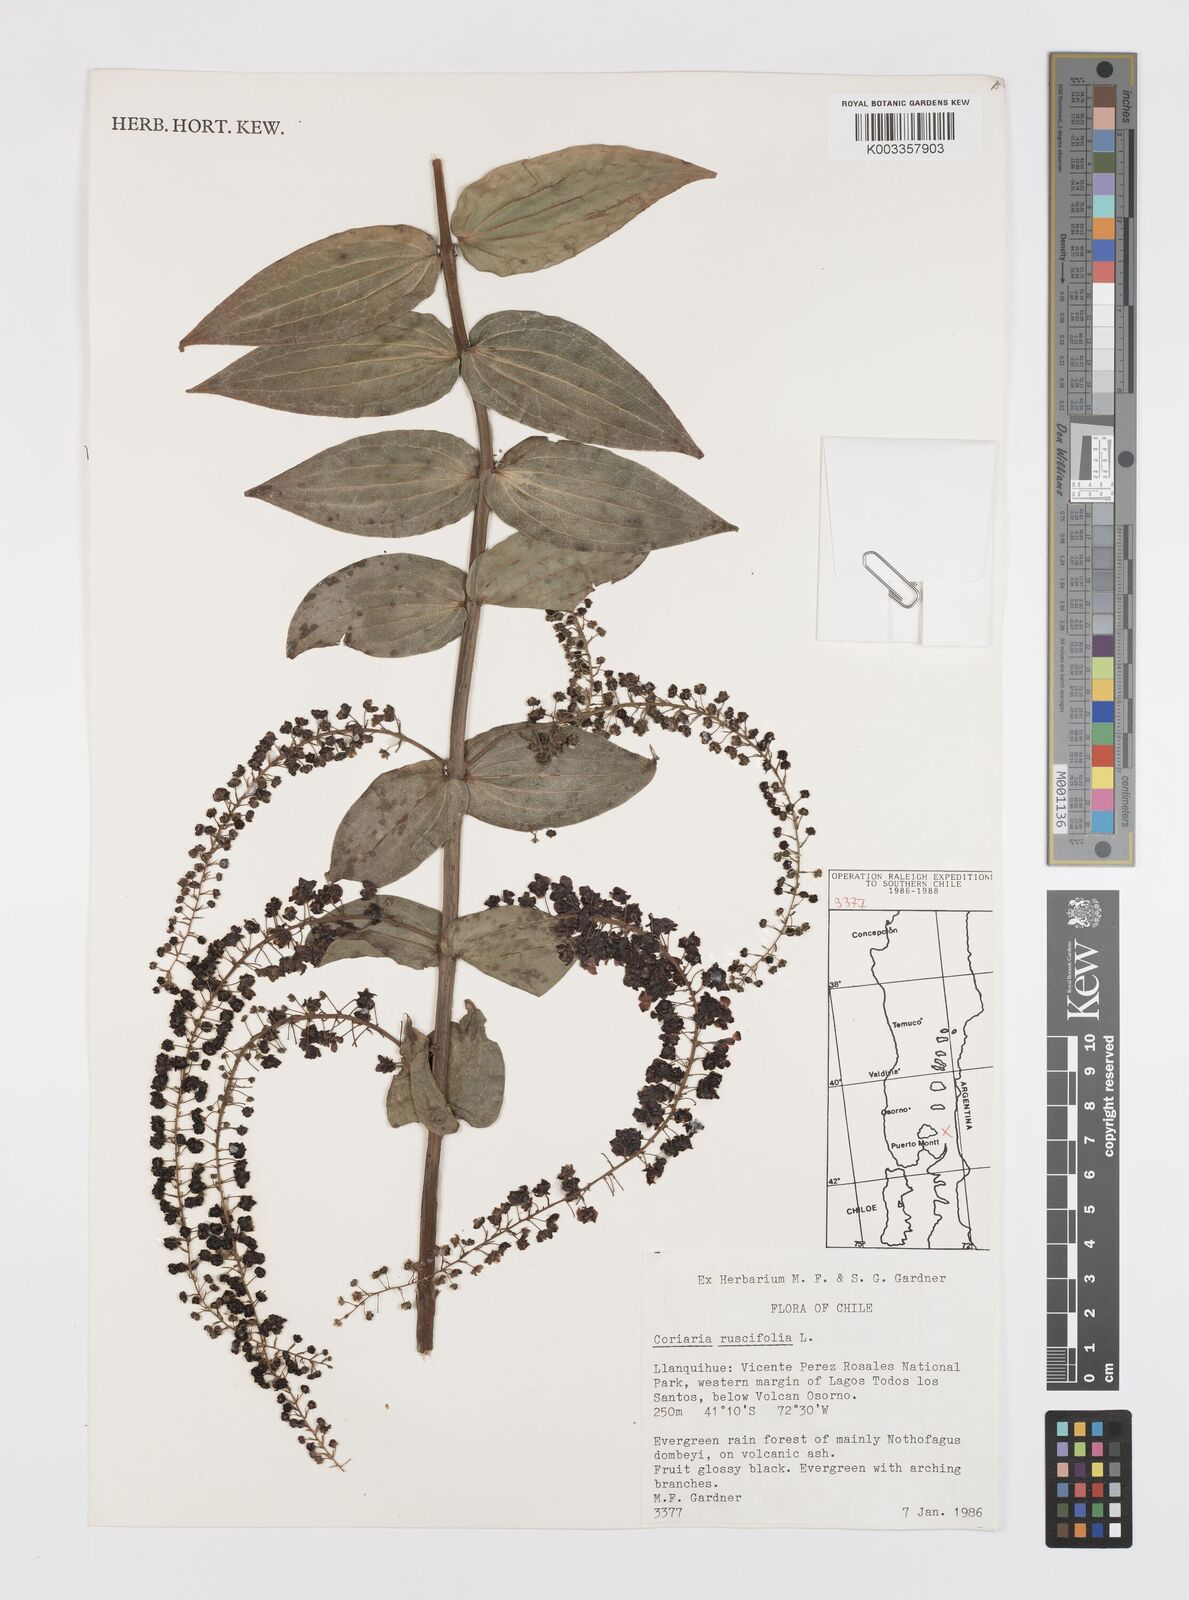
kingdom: Plantae
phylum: Tracheophyta
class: Magnoliopsida
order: Cucurbitales
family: Coriariaceae
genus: Coriaria
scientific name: Coriaria ruscifolia
